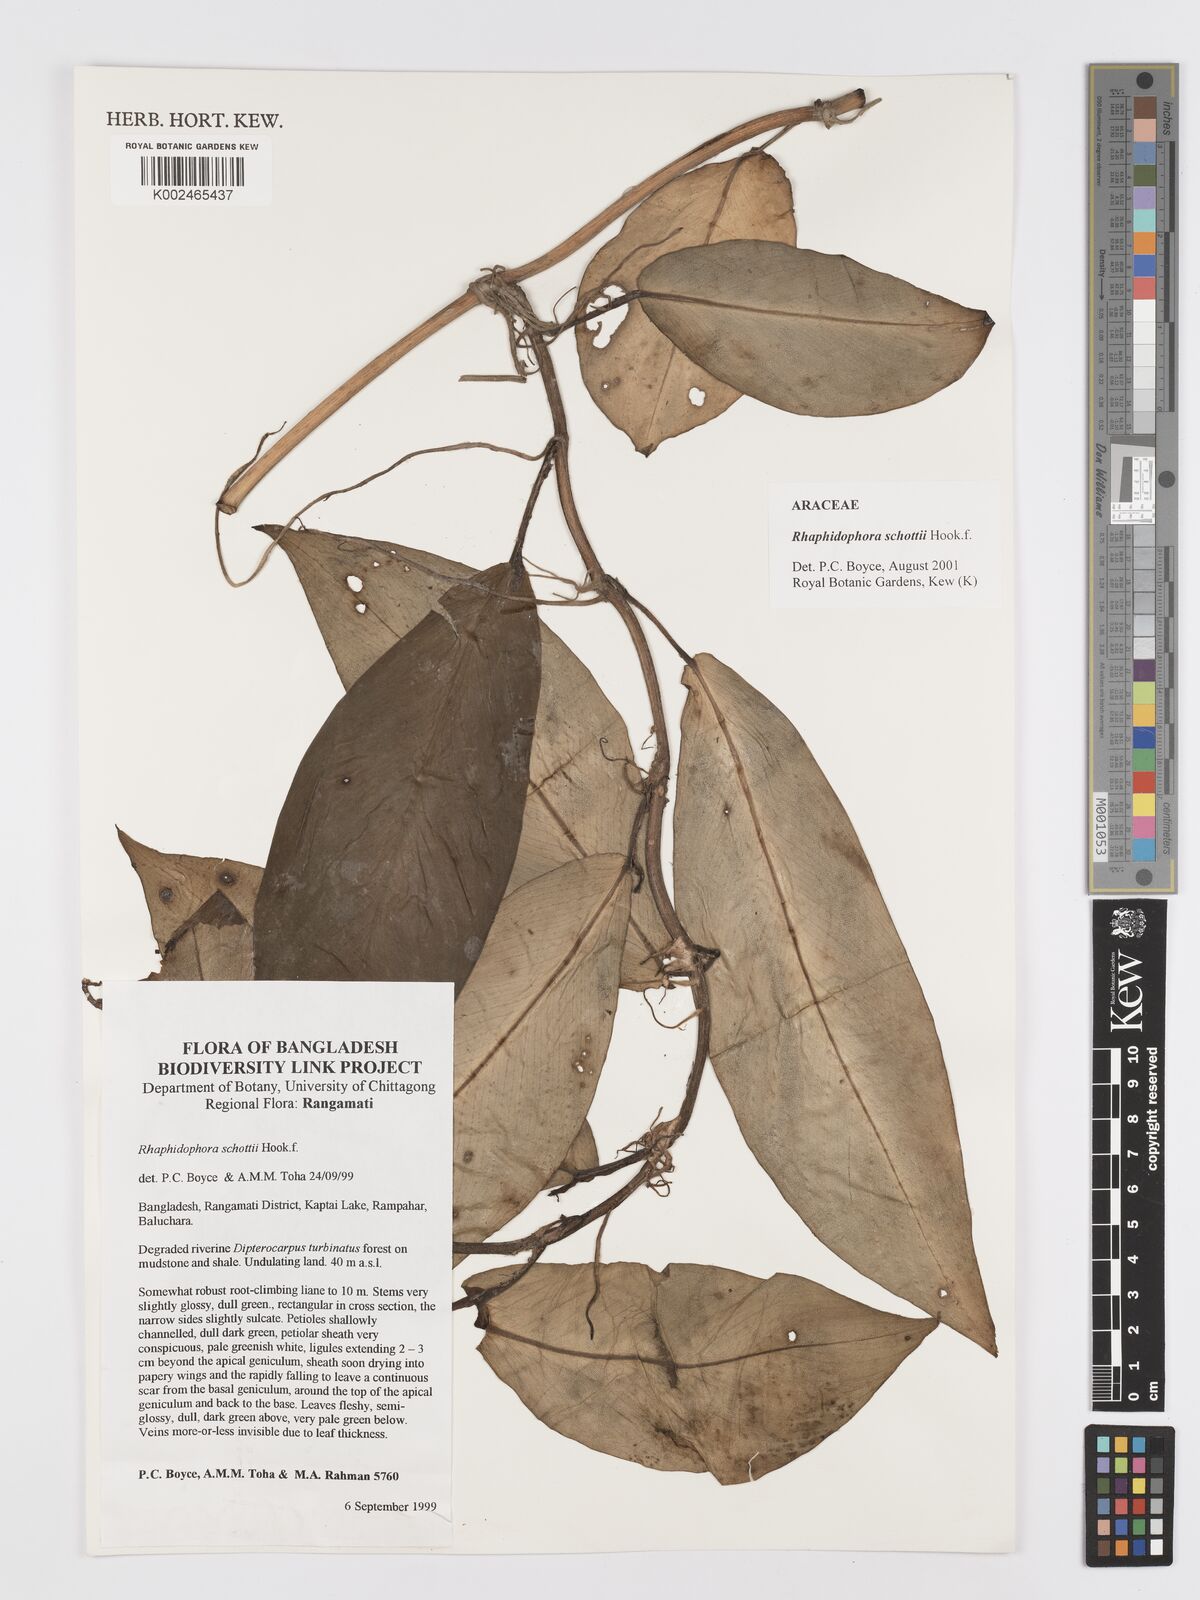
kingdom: Plantae
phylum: Tracheophyta
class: Liliopsida
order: Alismatales
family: Araceae
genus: Rhaphidophora
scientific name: Rhaphidophora schottii
